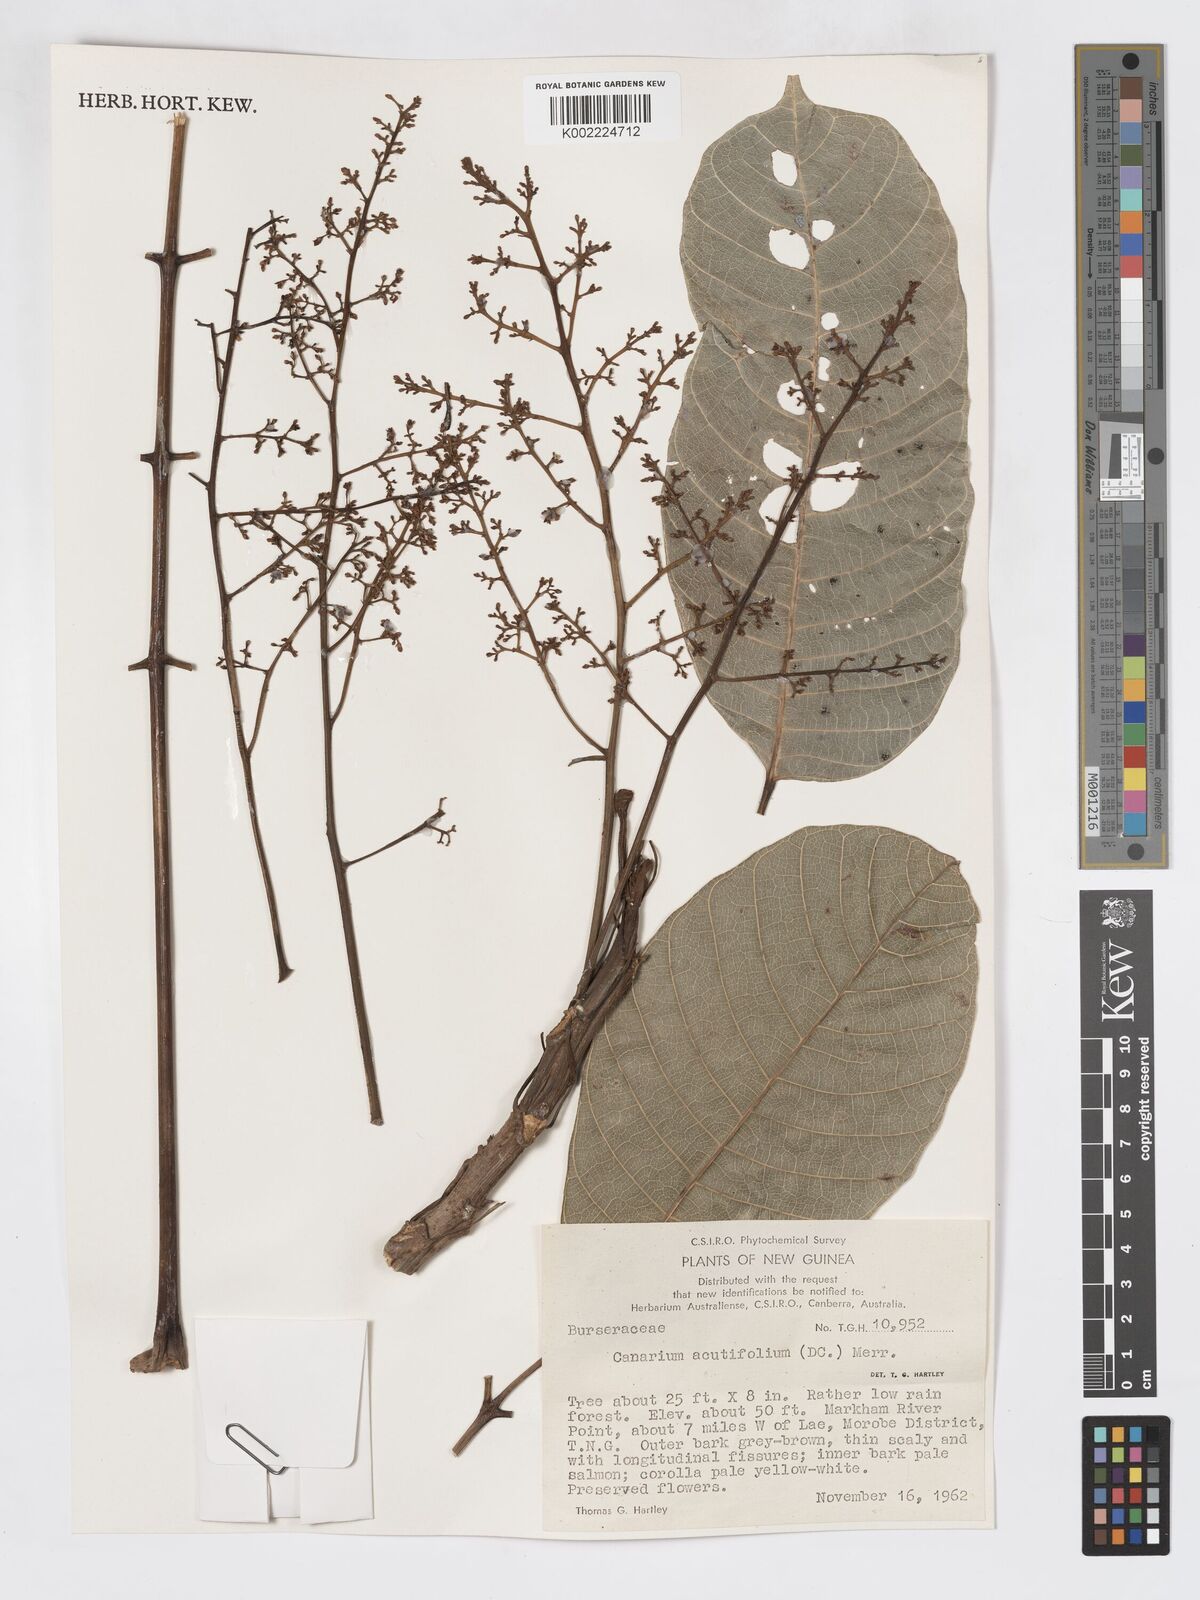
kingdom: Plantae
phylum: Tracheophyta
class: Magnoliopsida
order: Sapindales
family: Burseraceae
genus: Canarium
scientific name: Canarium acutifolium
